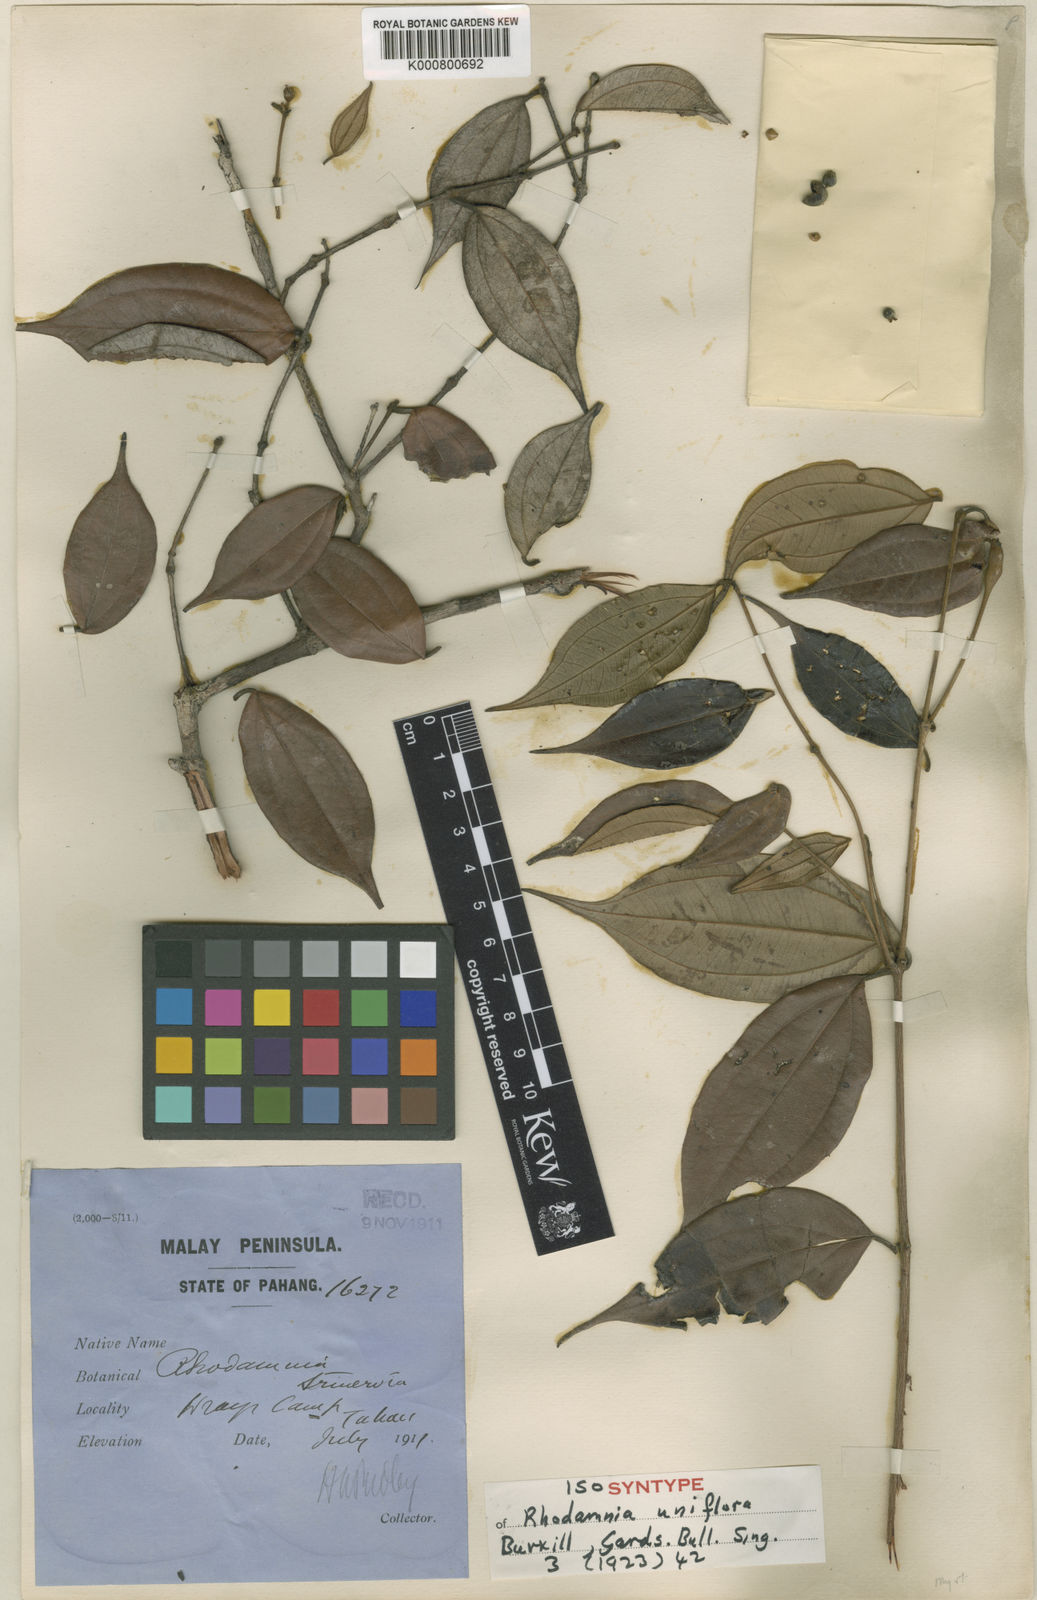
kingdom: Plantae
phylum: Tracheophyta
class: Magnoliopsida
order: Myrtales
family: Myrtaceae
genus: Rhodamnia
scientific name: Rhodamnia uniflora
